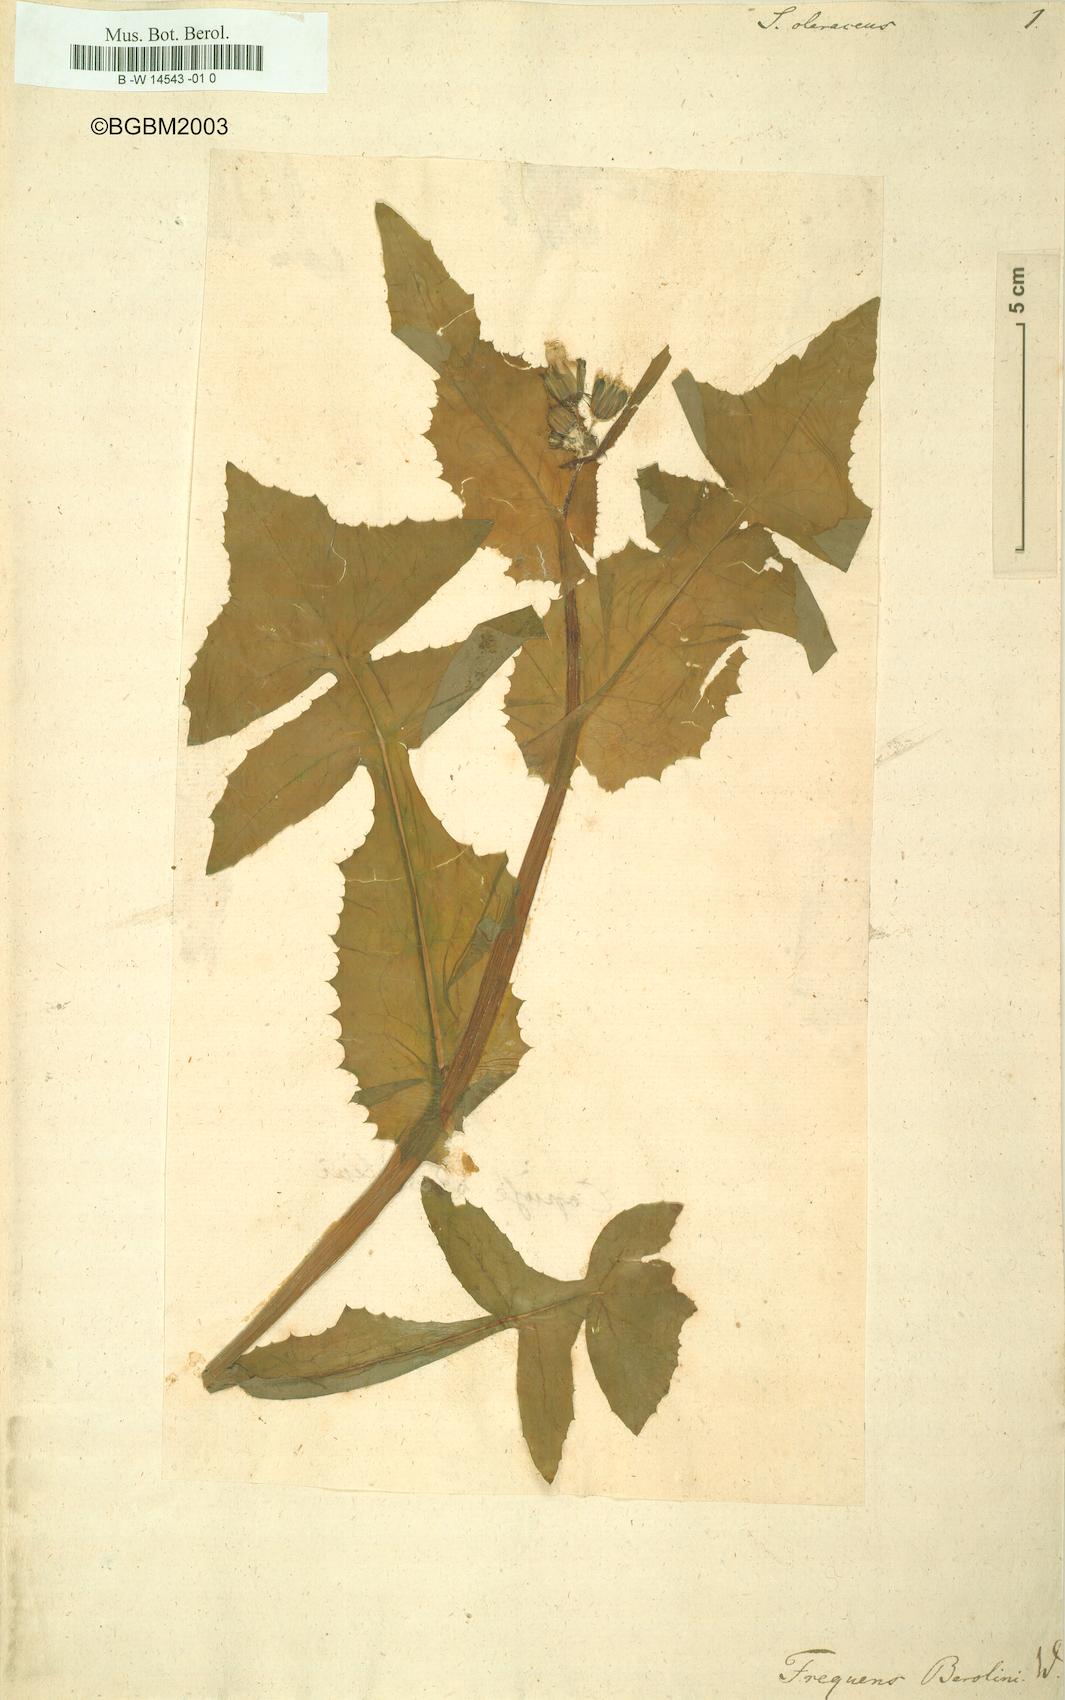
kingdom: Plantae
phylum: Tracheophyta
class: Magnoliopsida
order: Asterales
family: Asteraceae
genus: Sonchus
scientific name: Sonchus oleraceus
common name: Common sowthistle
